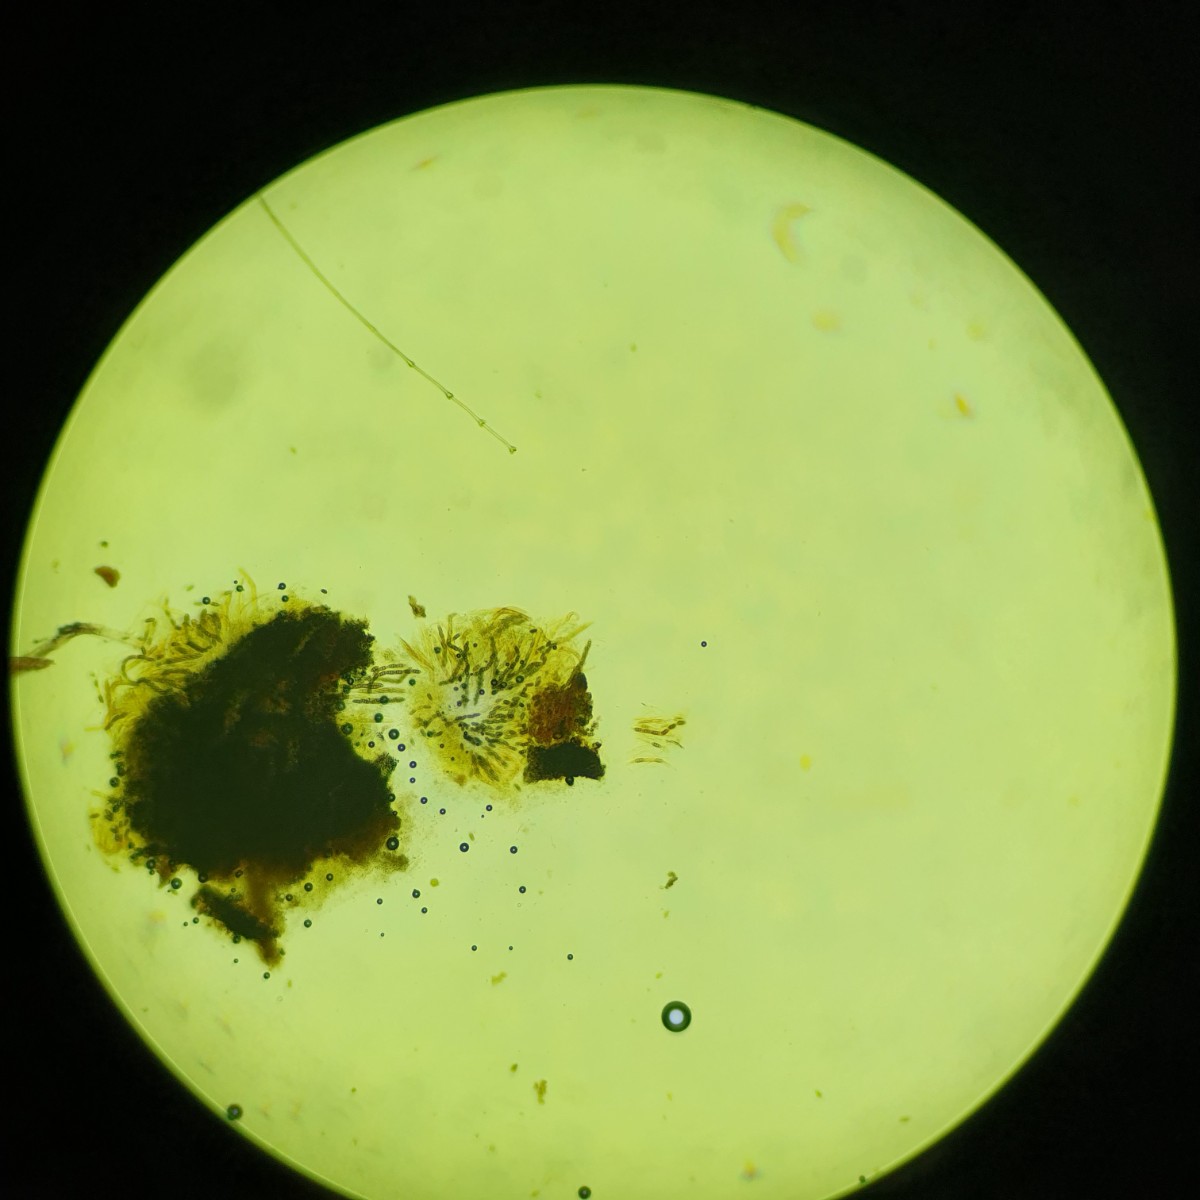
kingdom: Plantae
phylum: Bryophyta
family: Dothideomycetes
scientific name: Dothideomycetes
